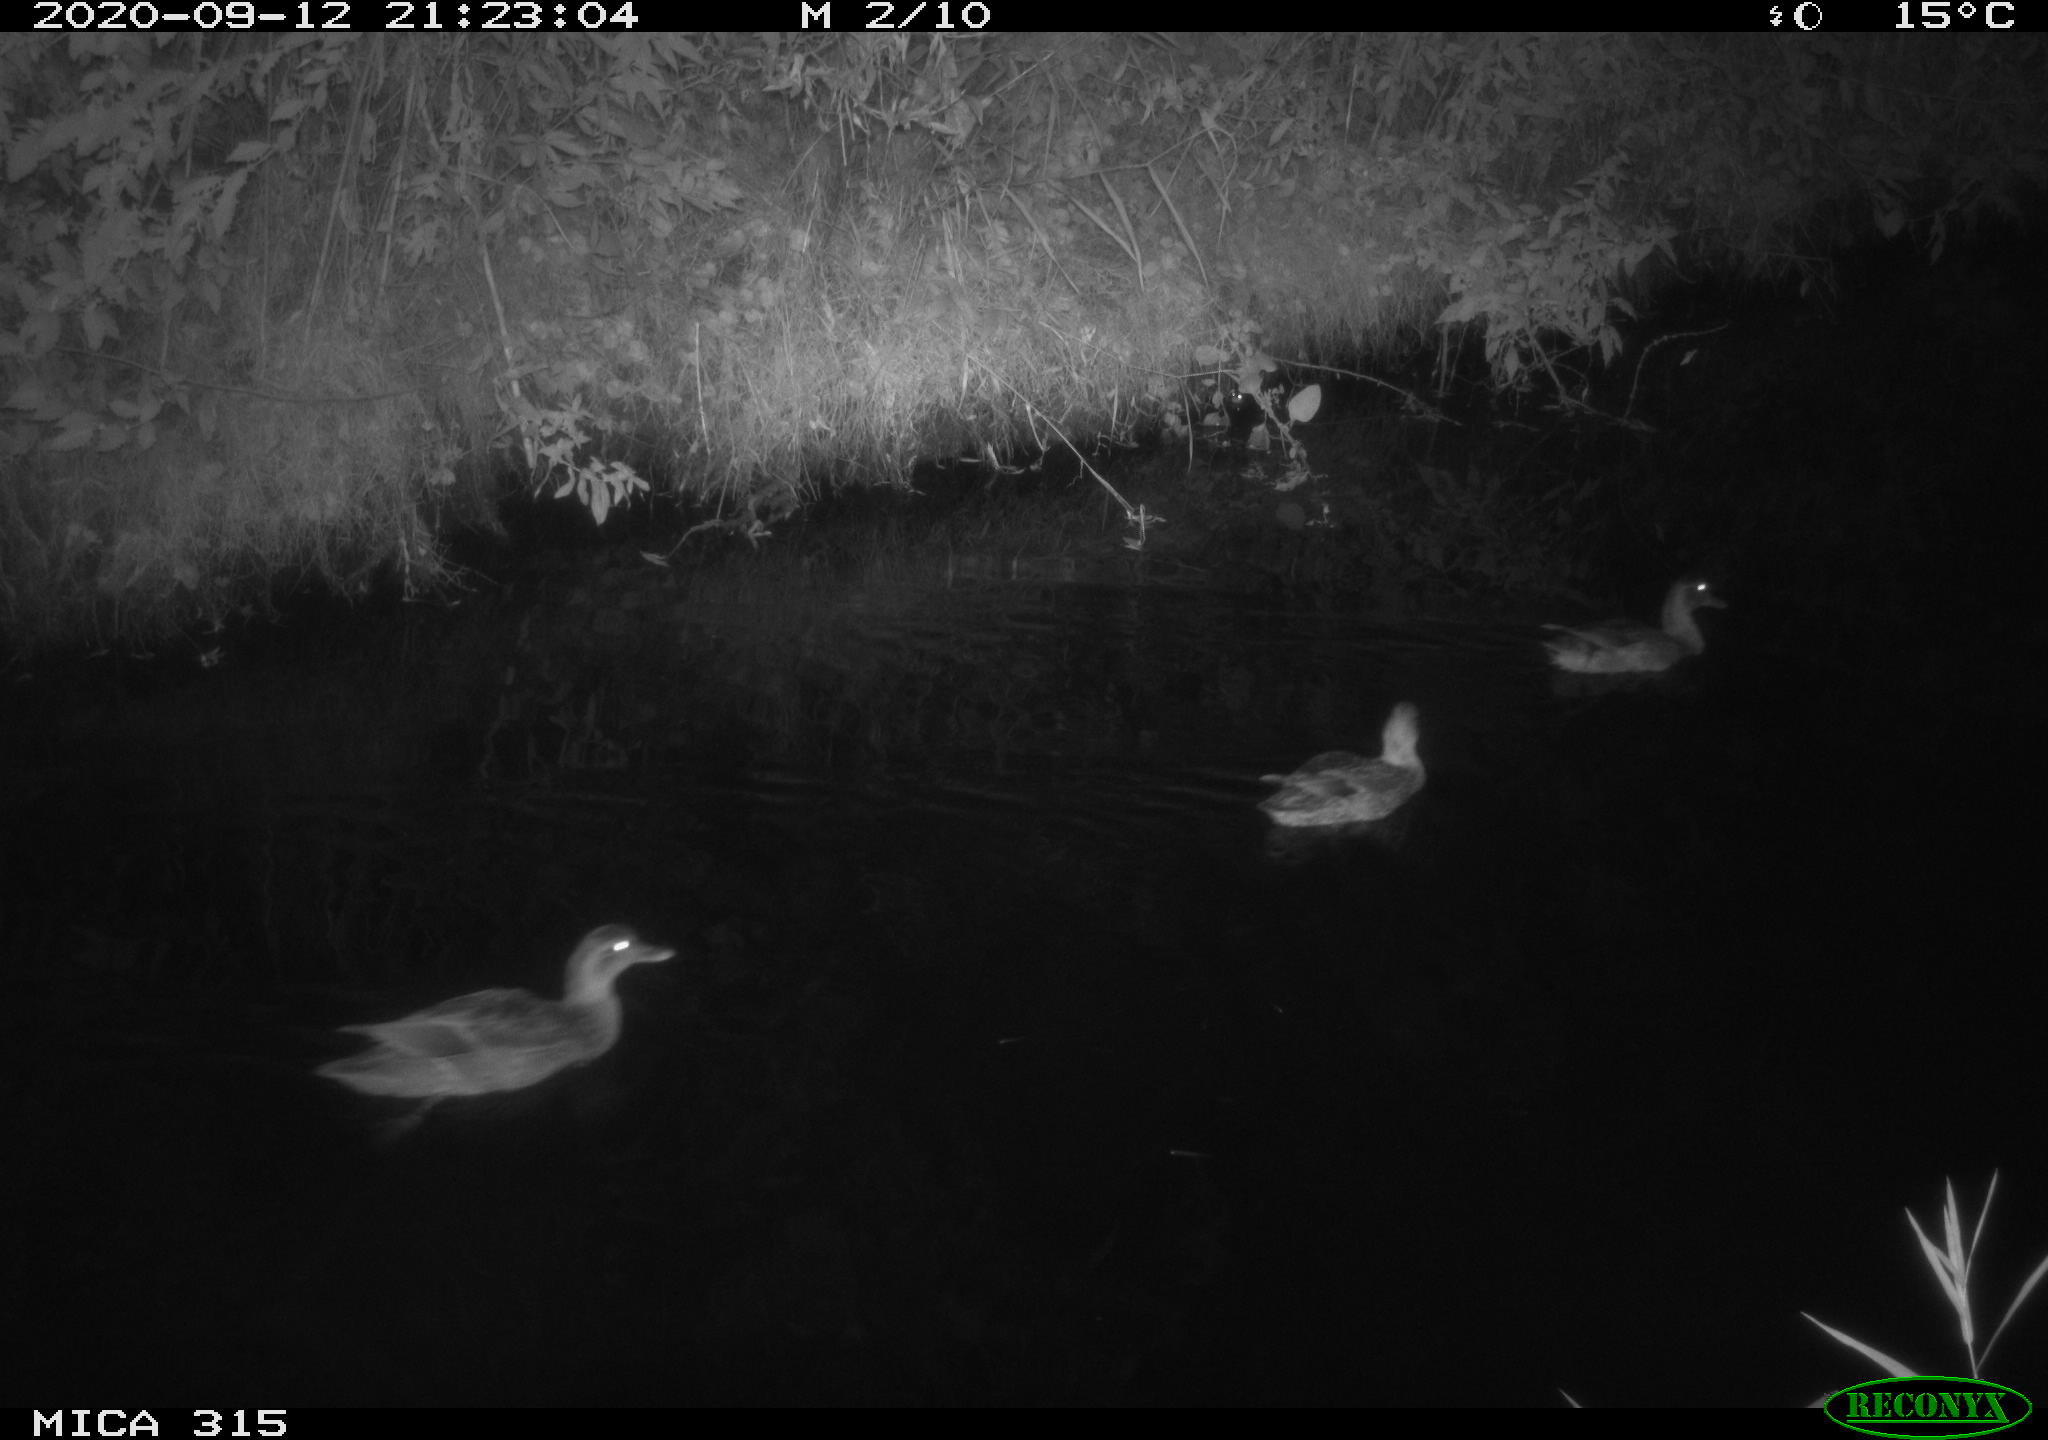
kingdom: Animalia
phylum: Chordata
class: Aves
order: Anseriformes
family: Anatidae
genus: Anas
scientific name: Anas platyrhynchos
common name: Mallard
